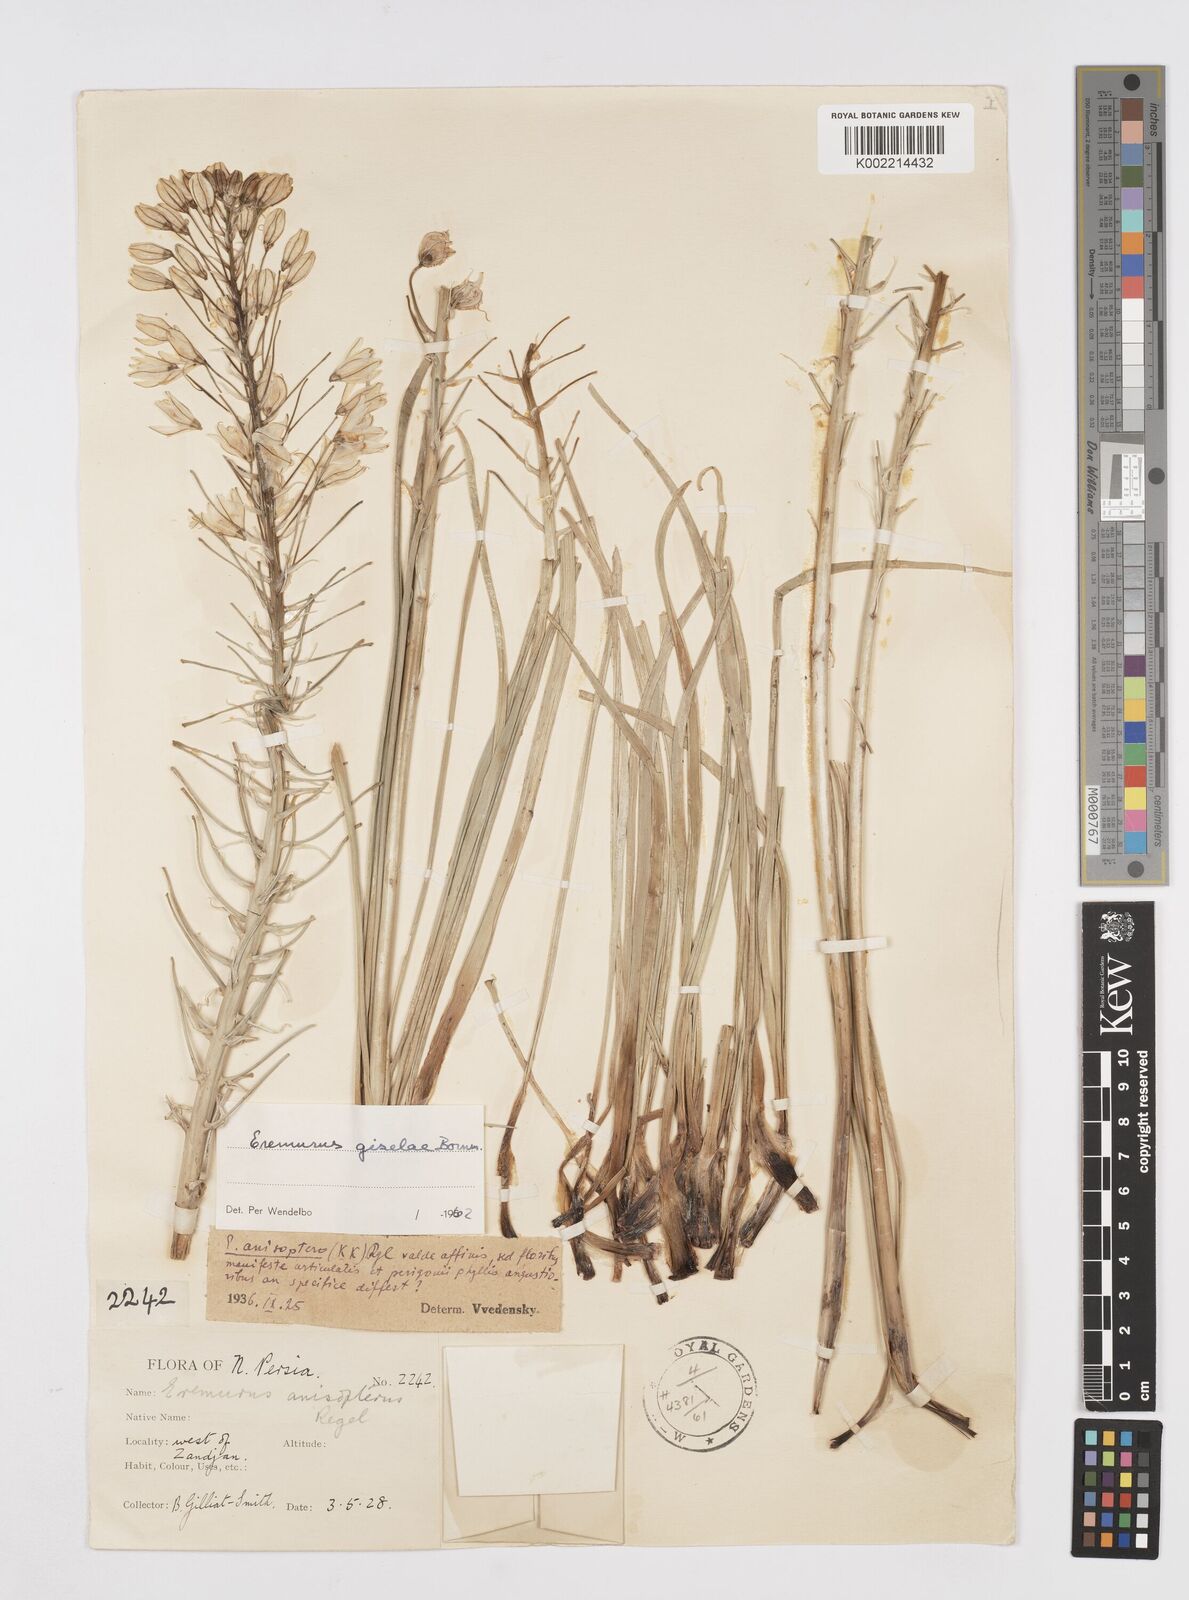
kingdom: Plantae
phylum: Tracheophyta
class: Liliopsida
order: Asparagales
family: Asphodelaceae
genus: Eremurus
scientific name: Eremurus kopet-daghensis
